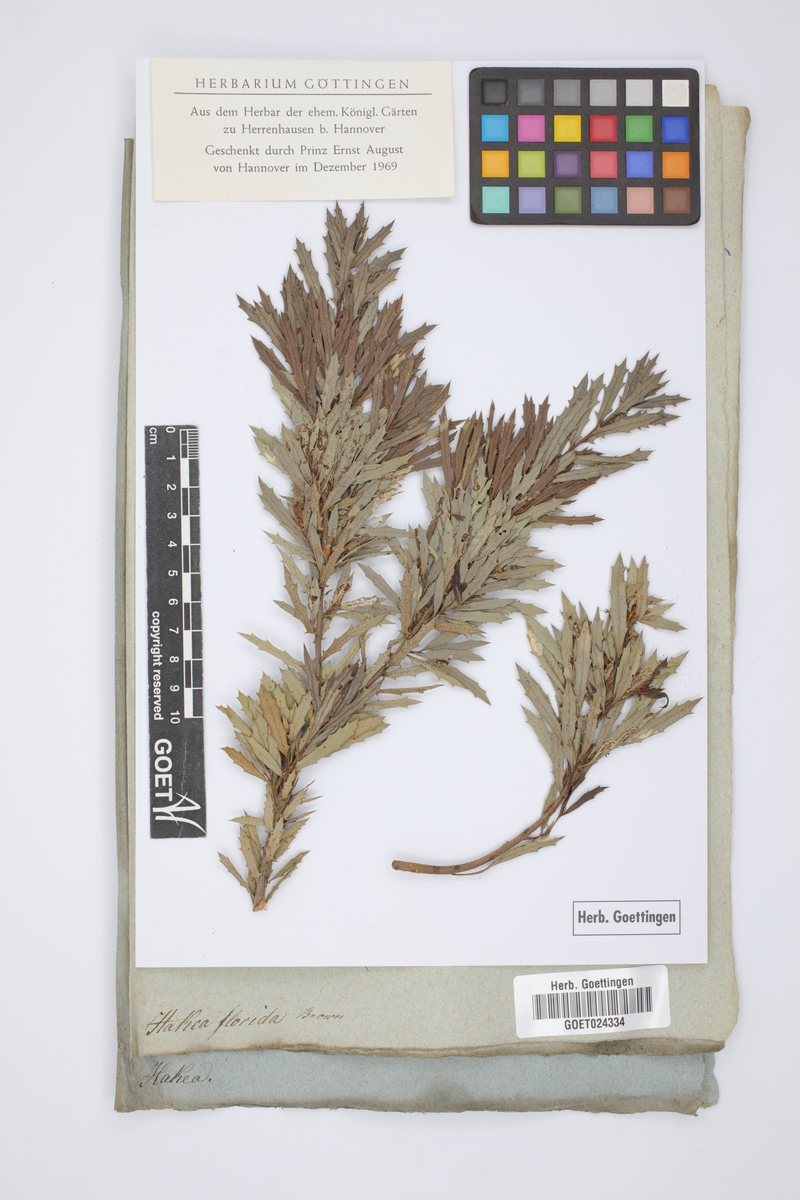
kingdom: Plantae
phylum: Tracheophyta
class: Magnoliopsida
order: Proteales
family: Proteaceae
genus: Hakea
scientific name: Hakea florida
